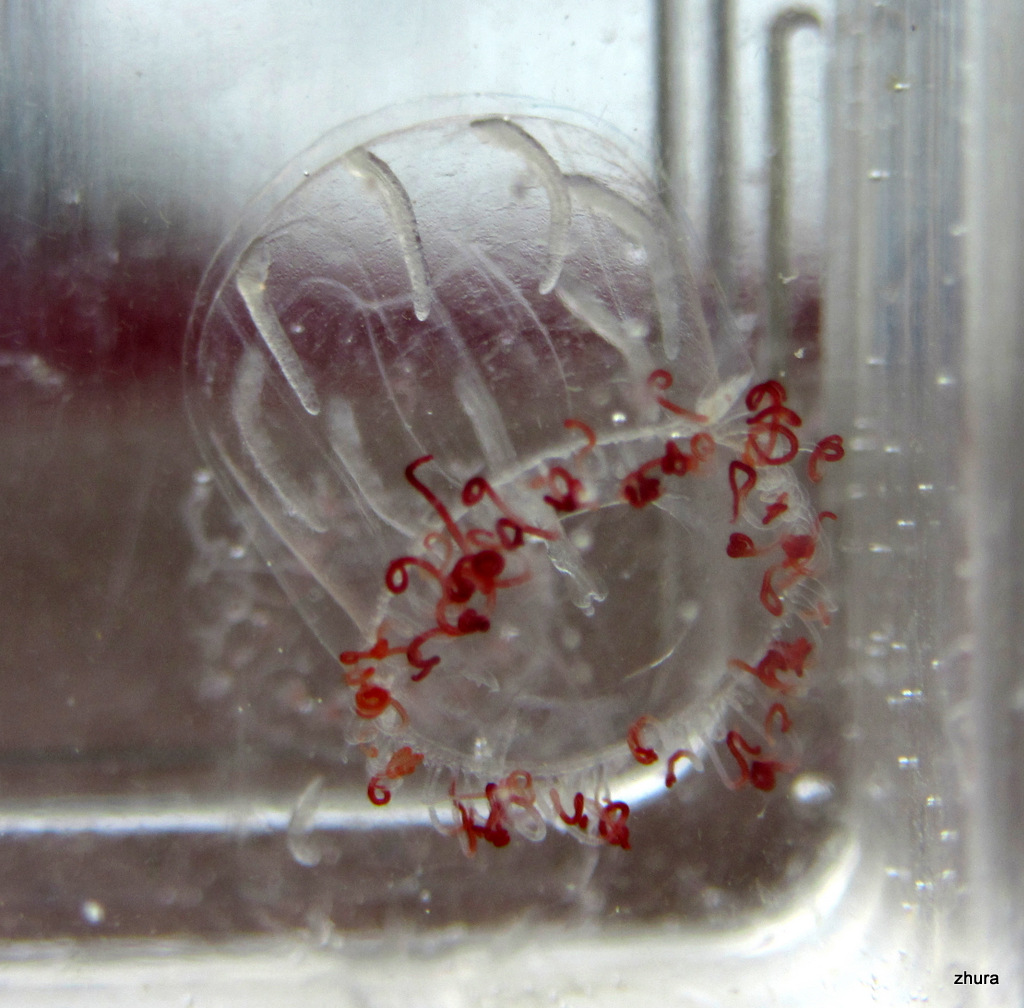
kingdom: Animalia
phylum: Cnidaria
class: Hydrozoa
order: Trachymedusae
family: Rhopalonematidae
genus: Aglantha
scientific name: Aglantha digitale
